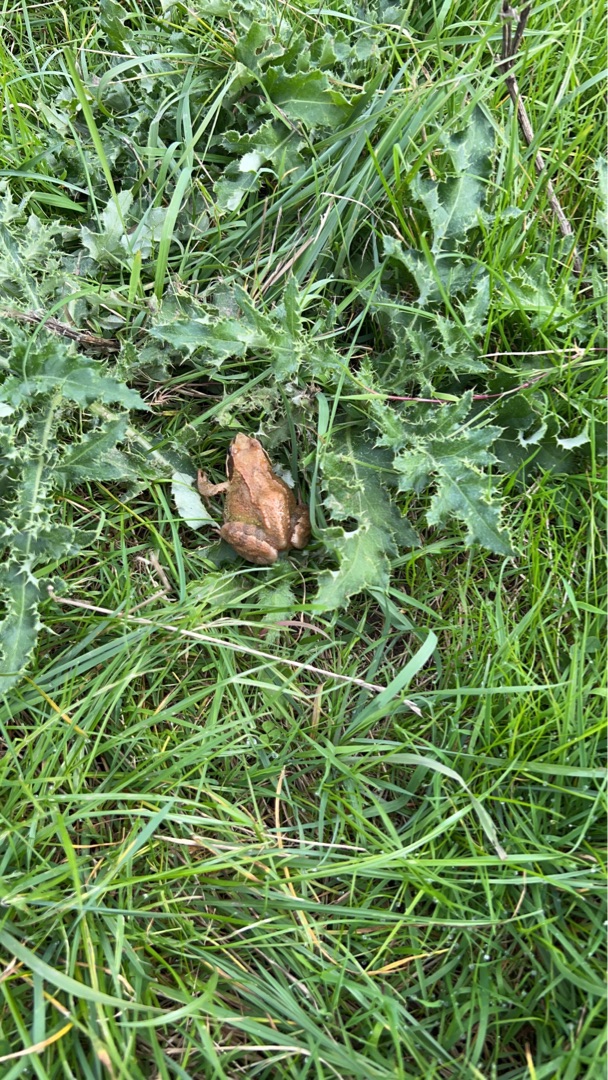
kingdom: Animalia
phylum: Chordata
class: Amphibia
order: Anura
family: Ranidae
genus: Rana
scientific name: Rana temporaria
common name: Butsnudet frø
